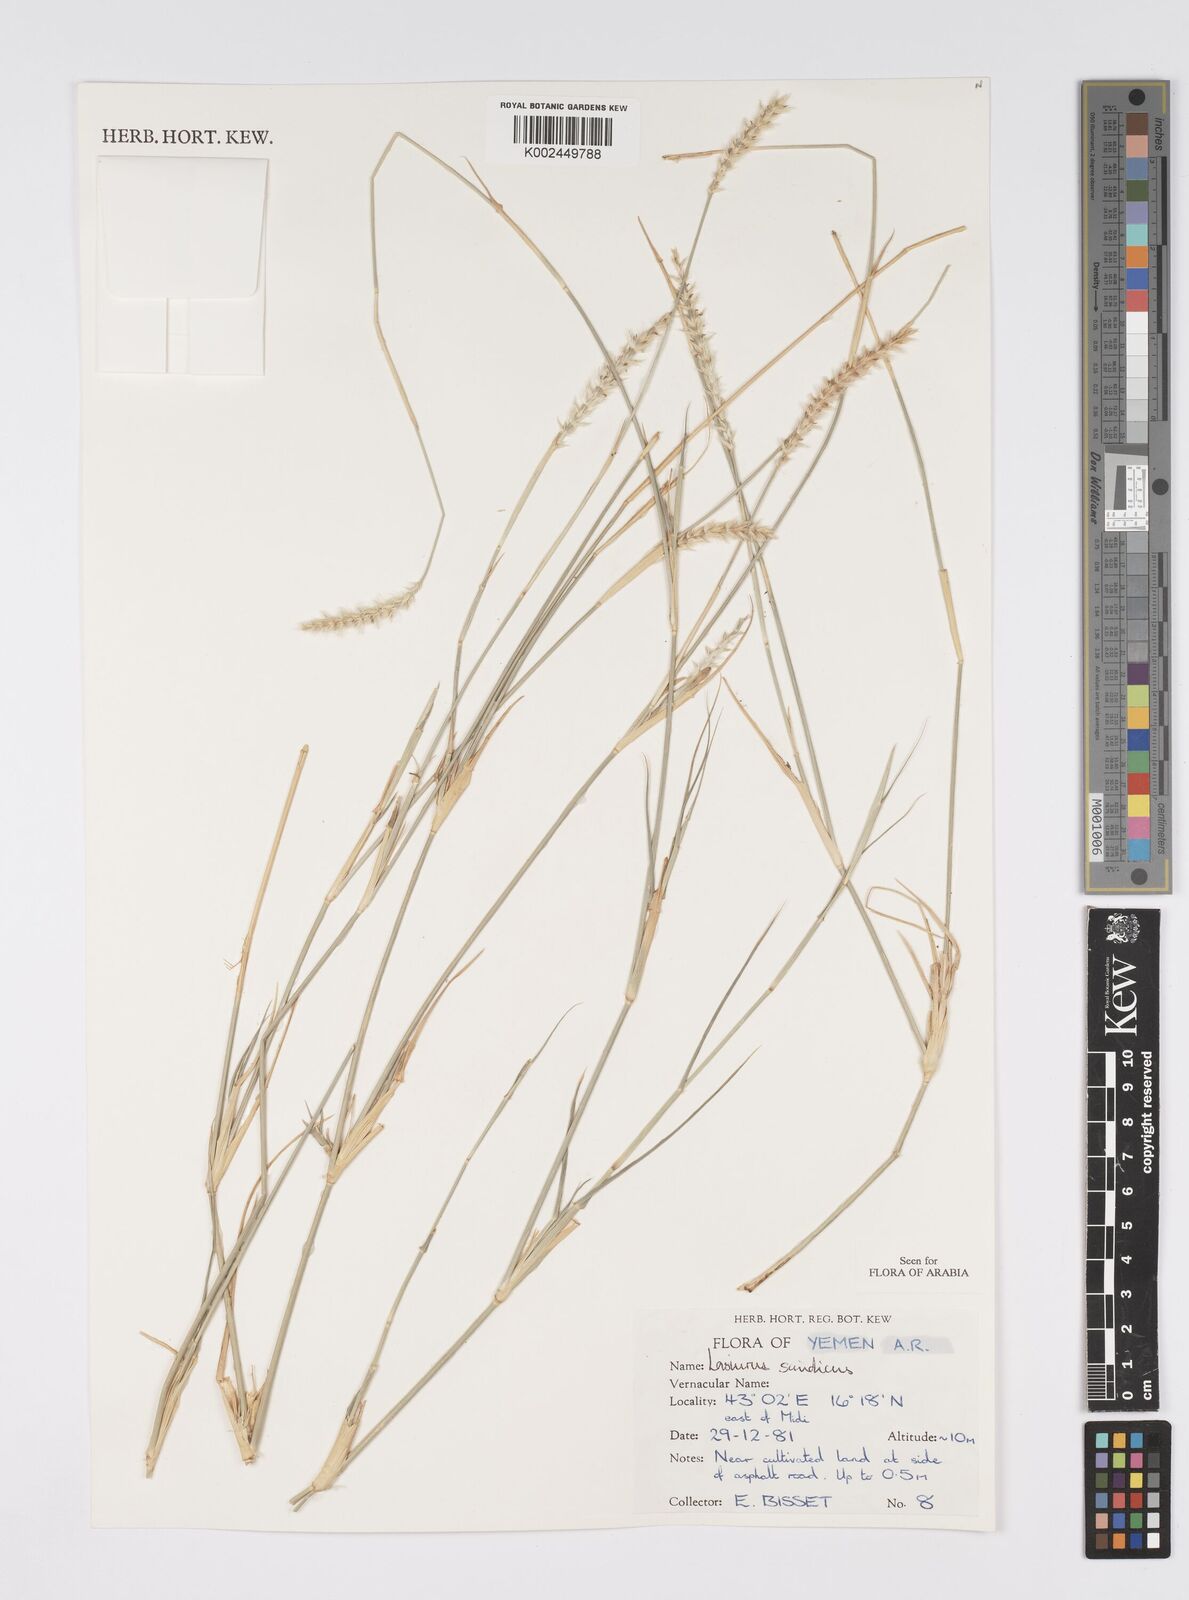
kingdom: Plantae
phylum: Tracheophyta
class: Liliopsida
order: Poales
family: Poaceae
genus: Lasiurus
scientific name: Lasiurus scindicus
